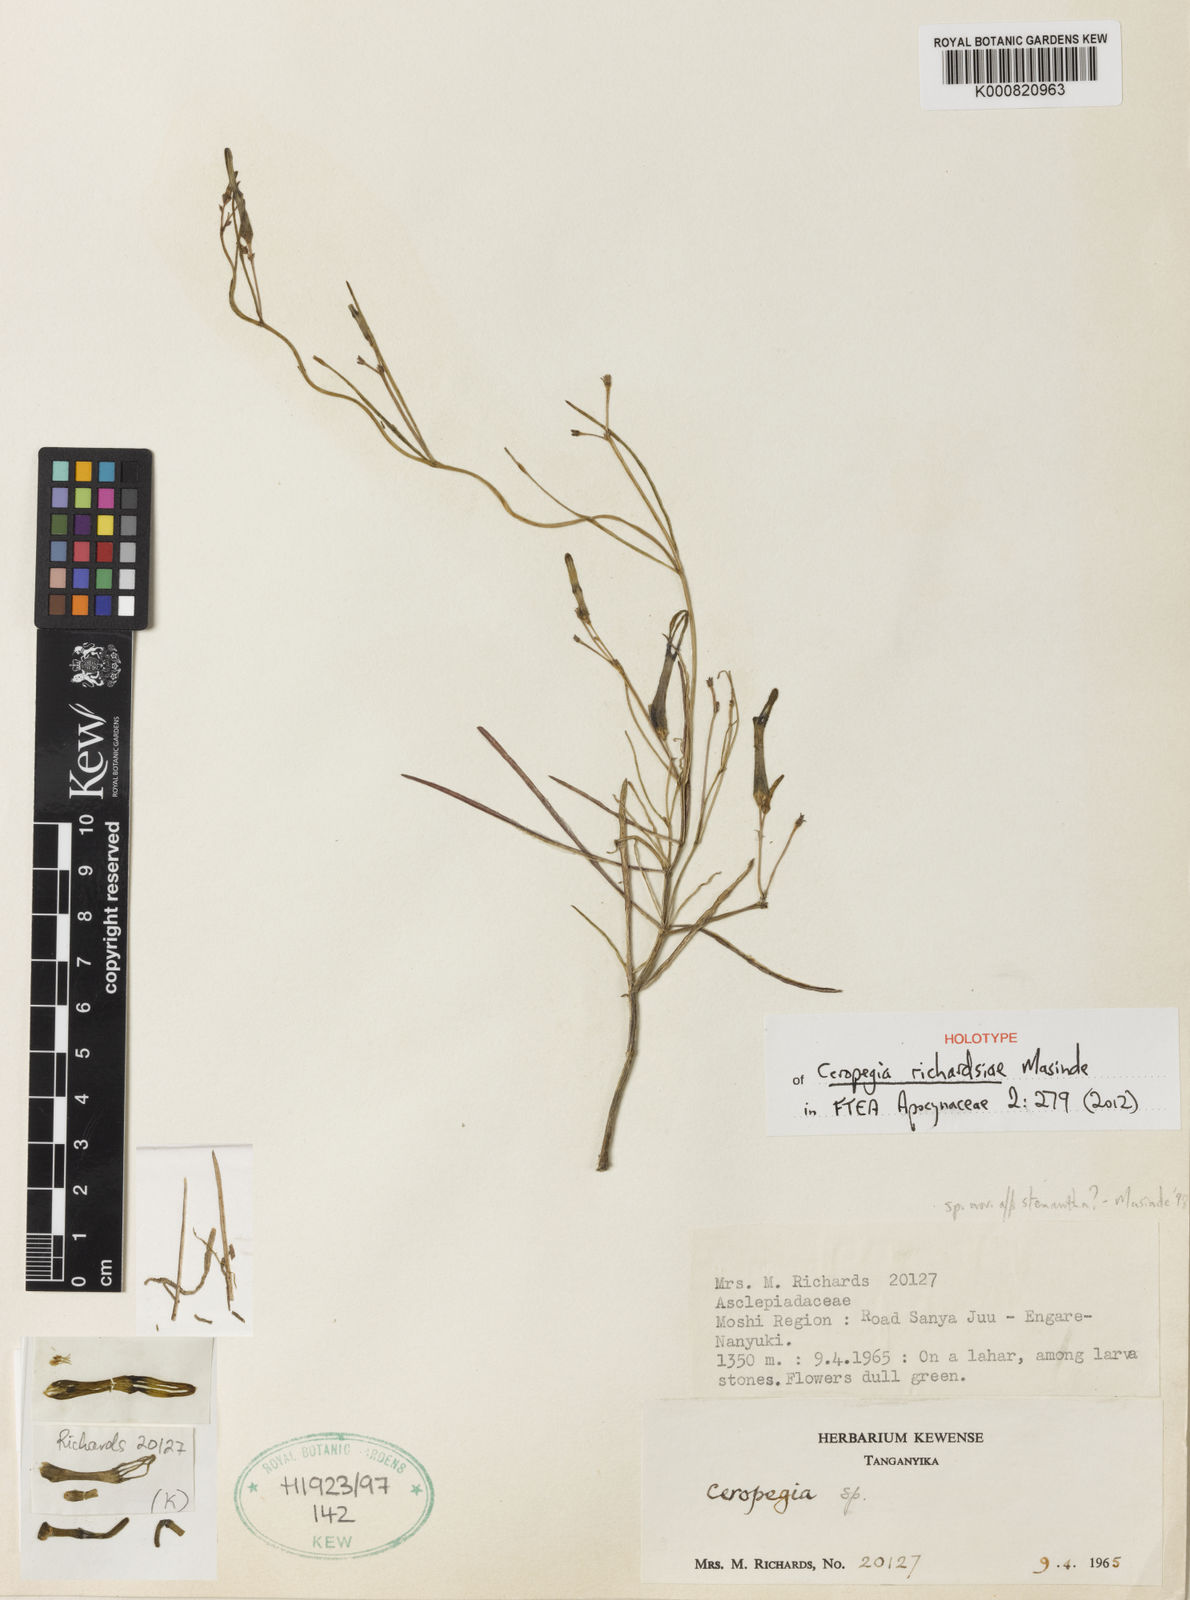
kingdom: Plantae
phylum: Tracheophyta
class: Magnoliopsida
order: Gentianales
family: Apocynaceae
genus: Ceropegia
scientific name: Ceropegia richardsiae
